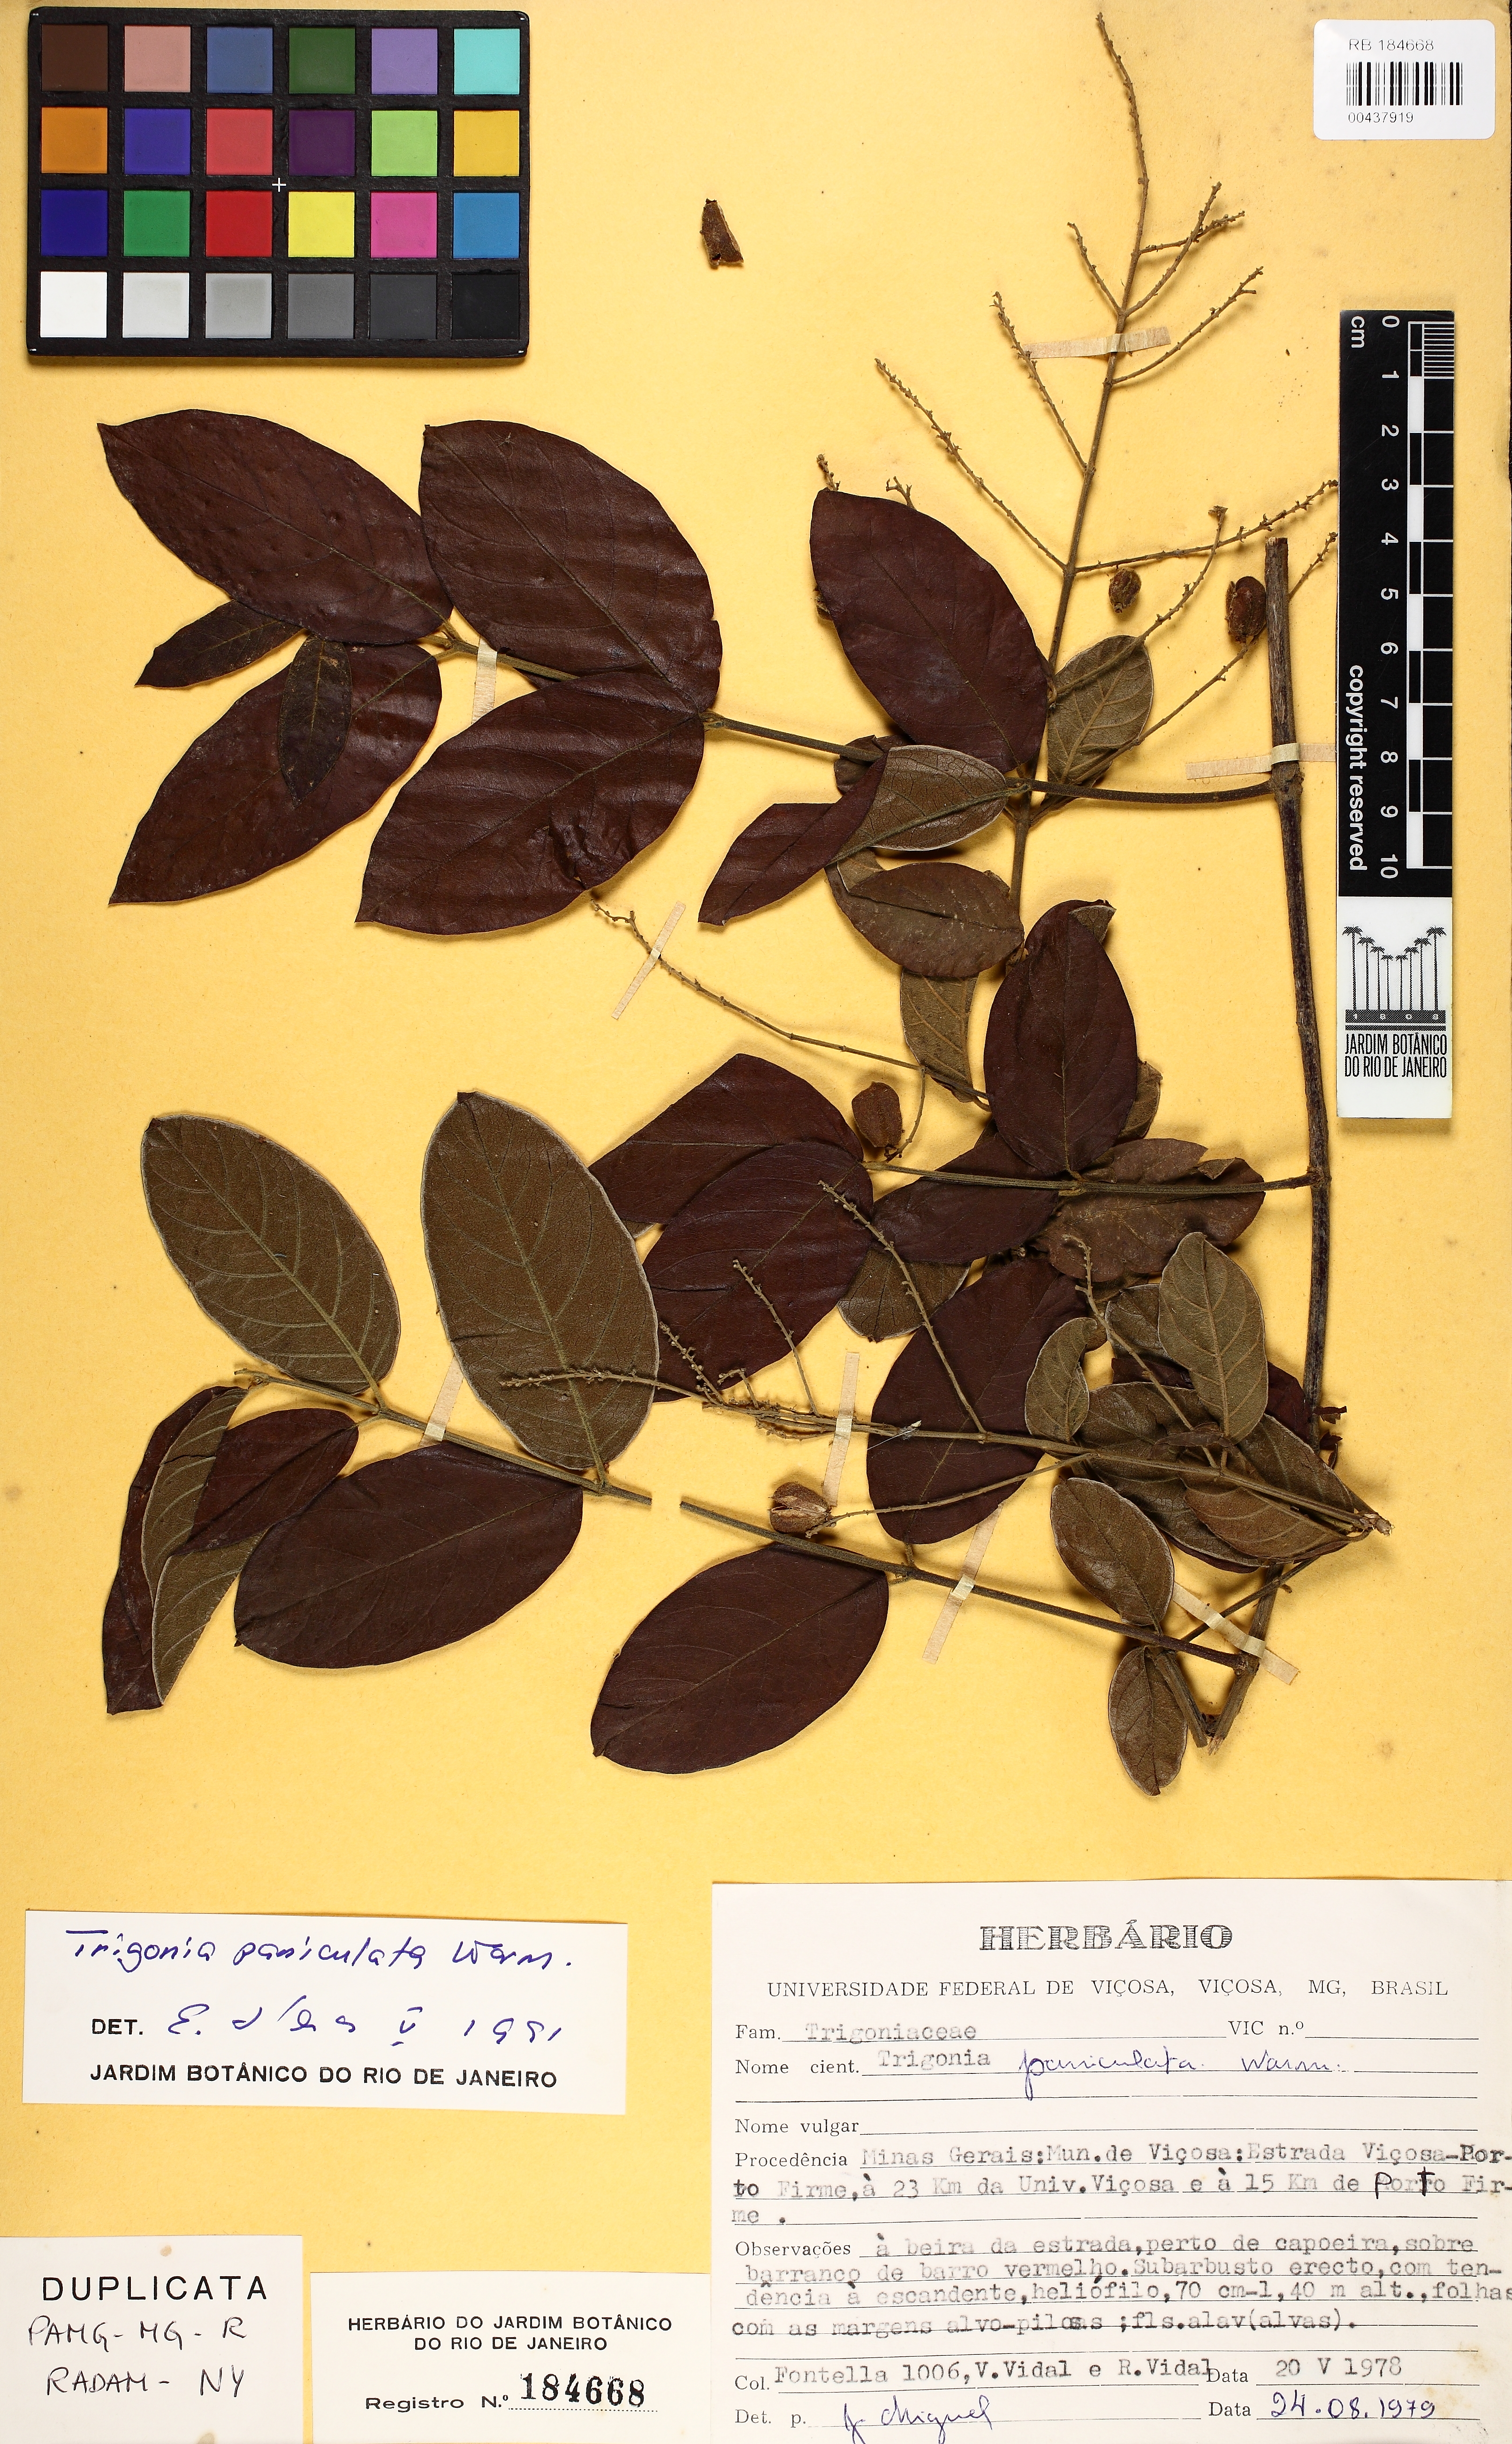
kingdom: Plantae
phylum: Tracheophyta
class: Magnoliopsida
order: Malpighiales
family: Trigoniaceae
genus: Trigonia
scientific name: Trigonia paniculata
